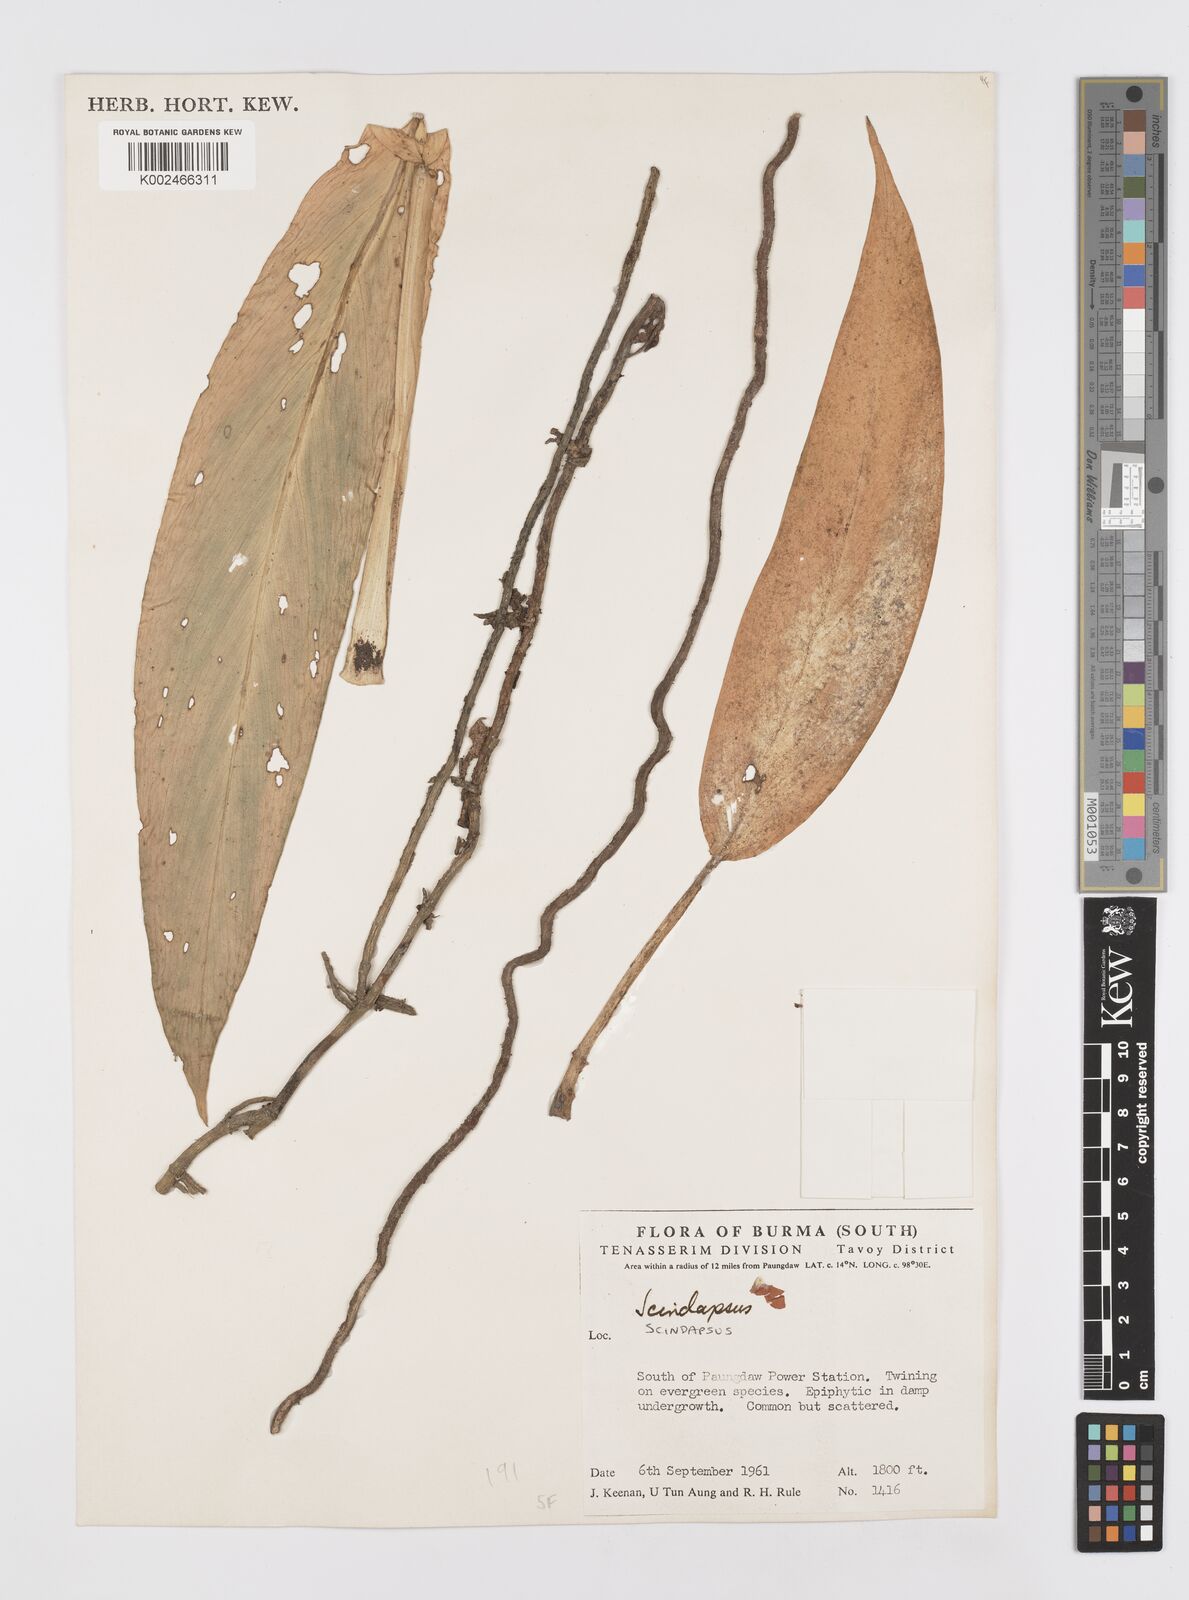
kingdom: Plantae
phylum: Tracheophyta
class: Liliopsida
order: Alismatales
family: Araceae
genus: Scindapsus
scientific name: Scindapsus
